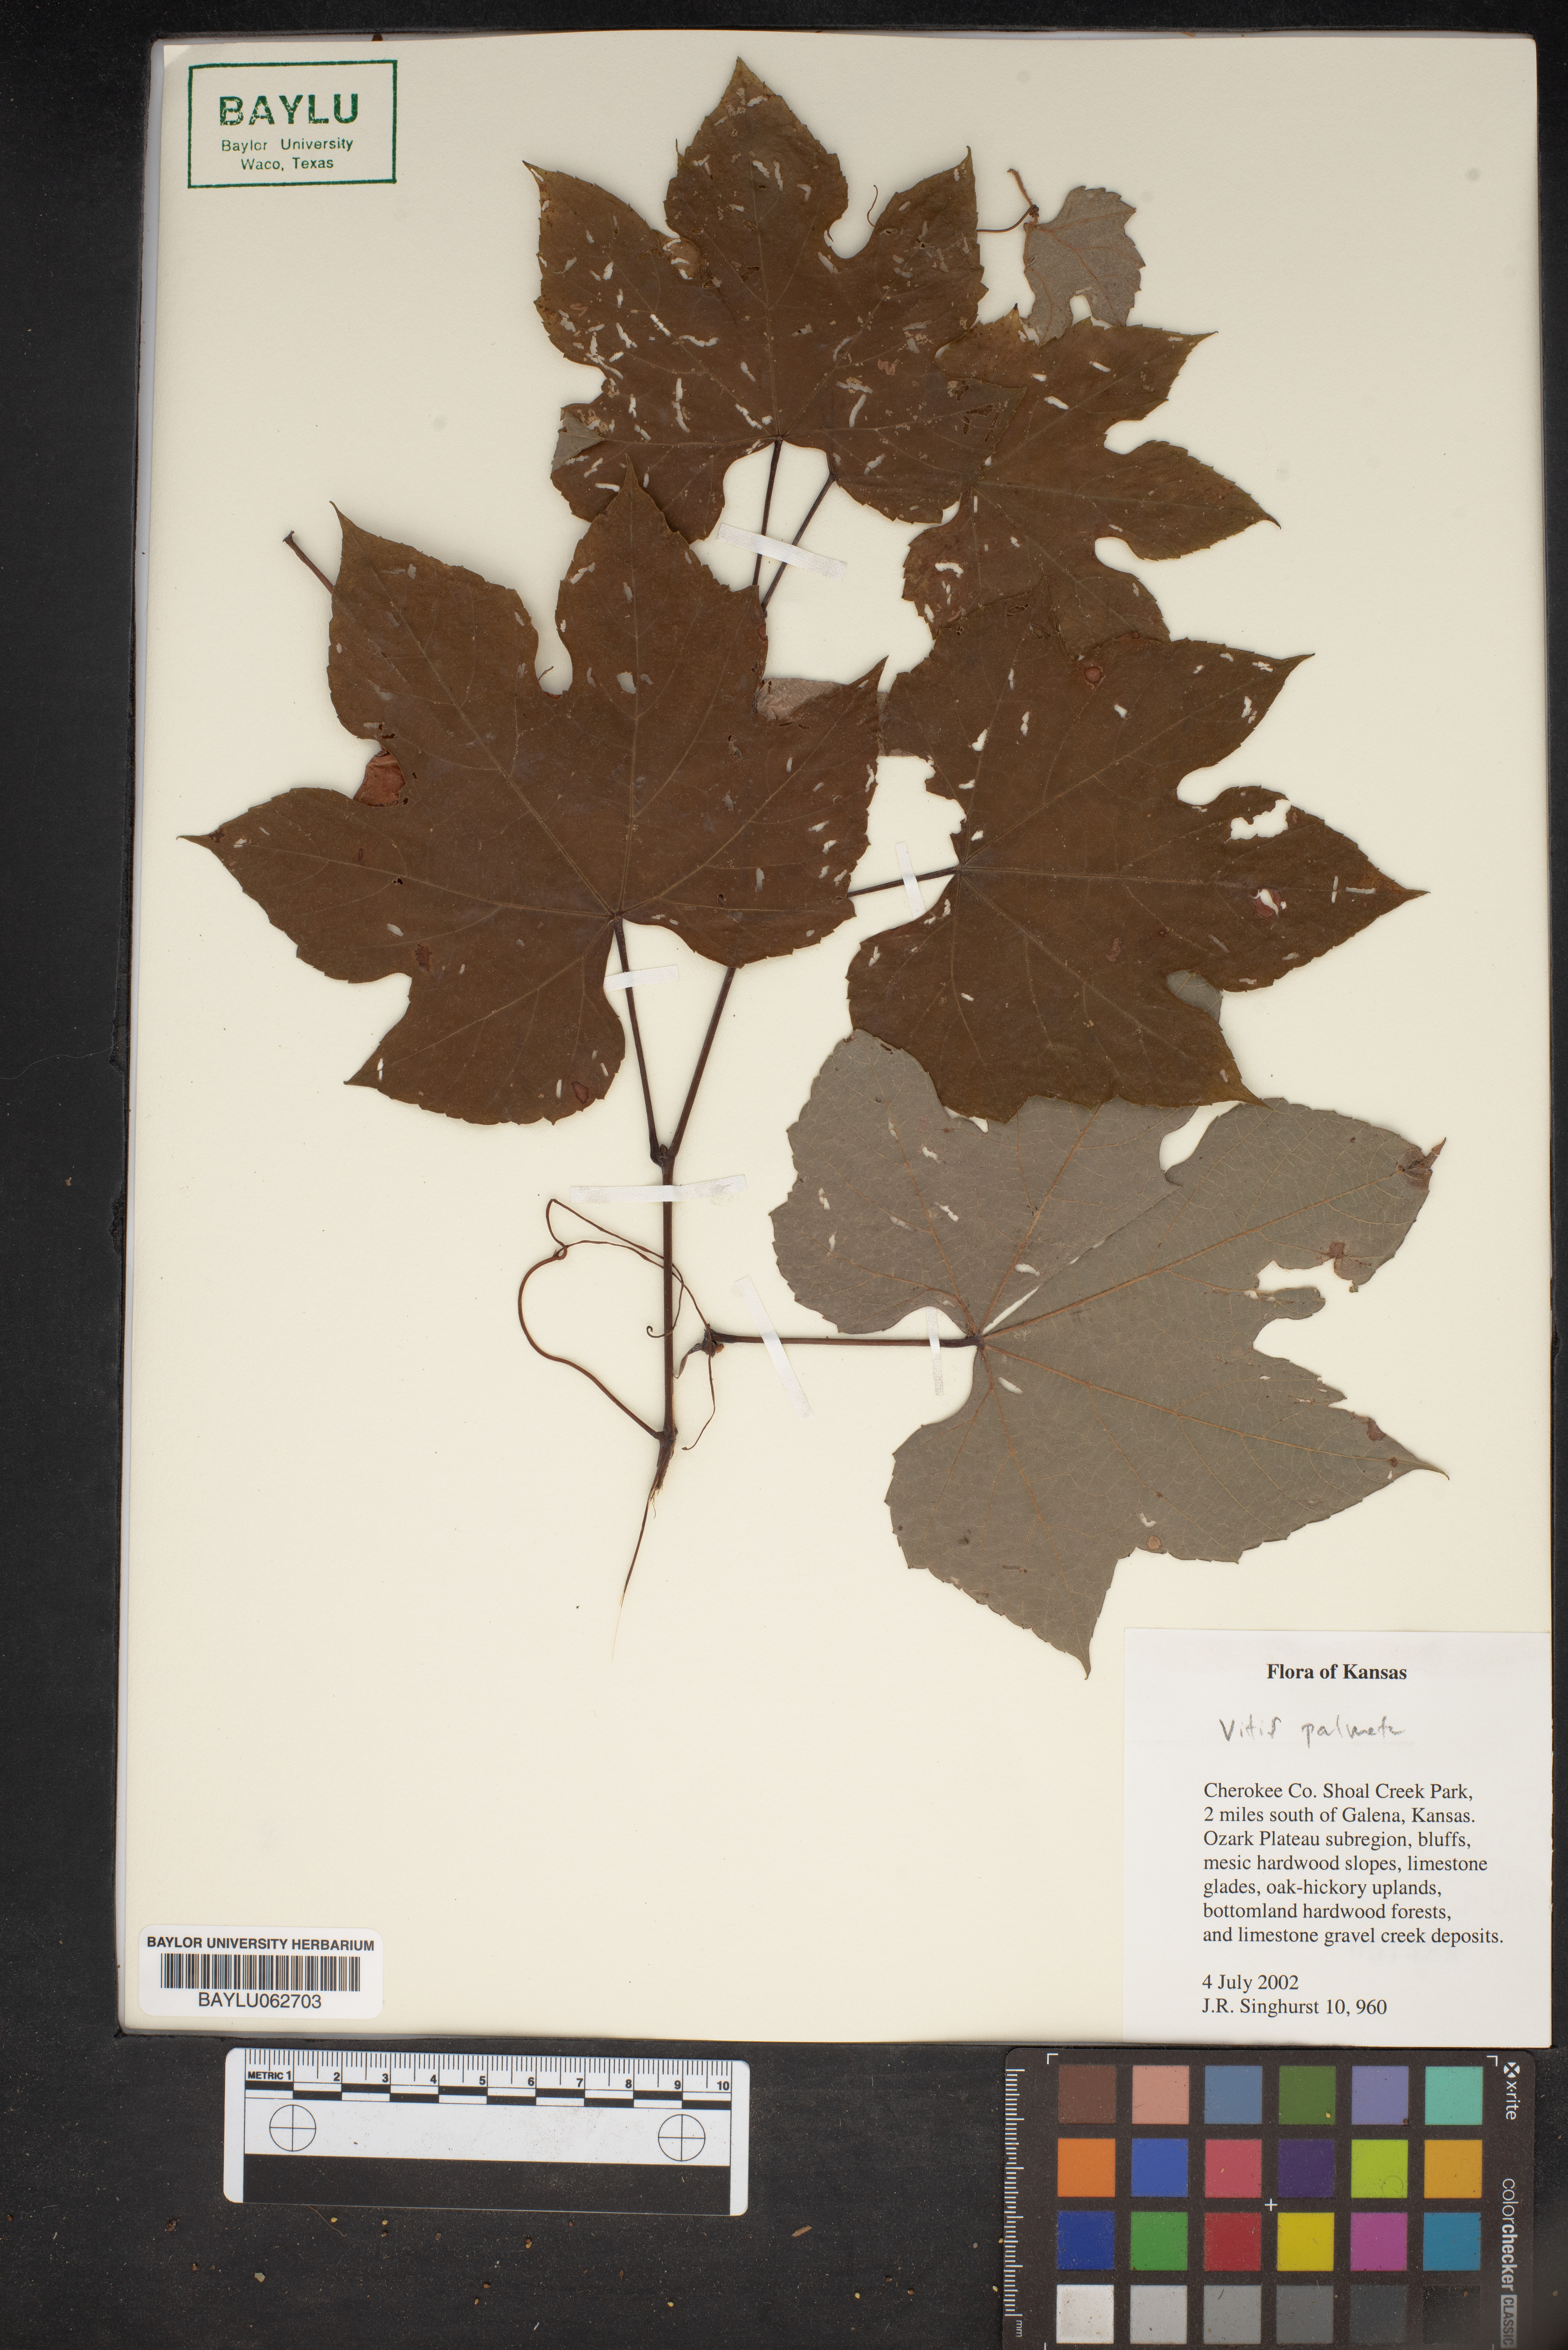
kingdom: Plantae
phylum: Tracheophyta
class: Magnoliopsida
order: Vitales
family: Vitaceae
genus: Vitis
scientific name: Vitis palmata
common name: Catbird grape
